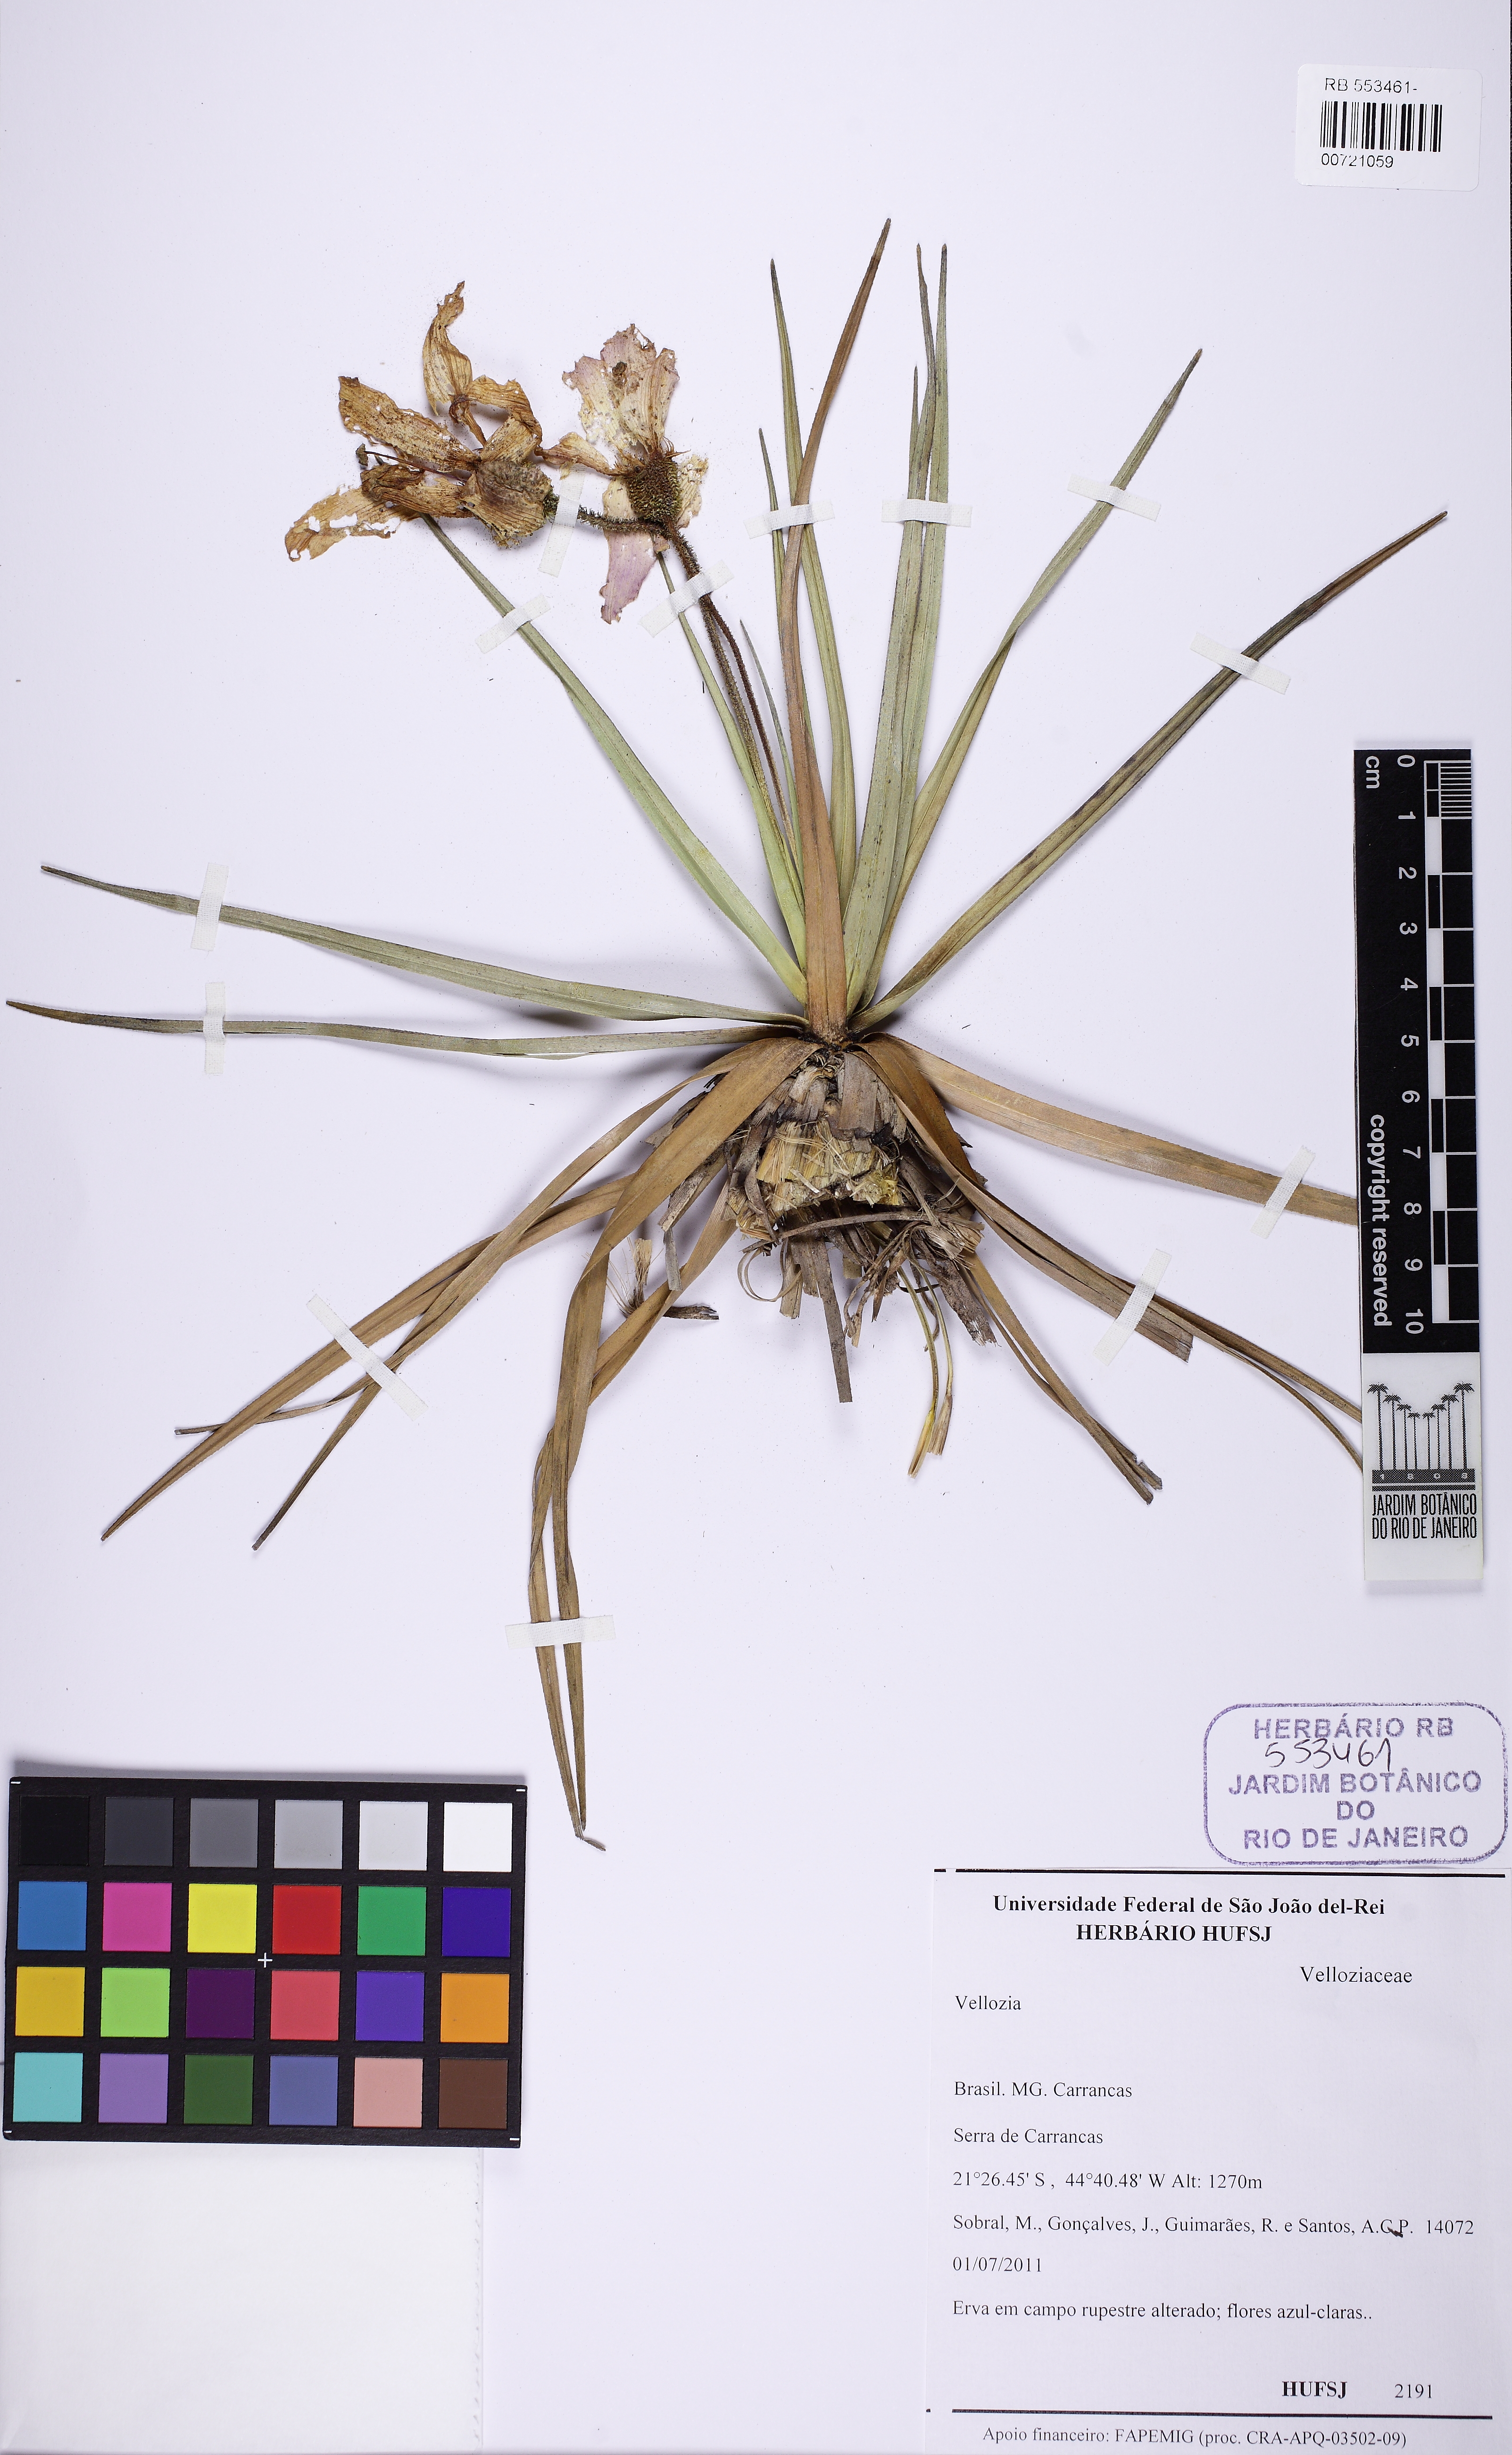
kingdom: Plantae
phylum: Tracheophyta
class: Liliopsida
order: Pandanales
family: Velloziaceae
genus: Vellozia
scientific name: Vellozia
